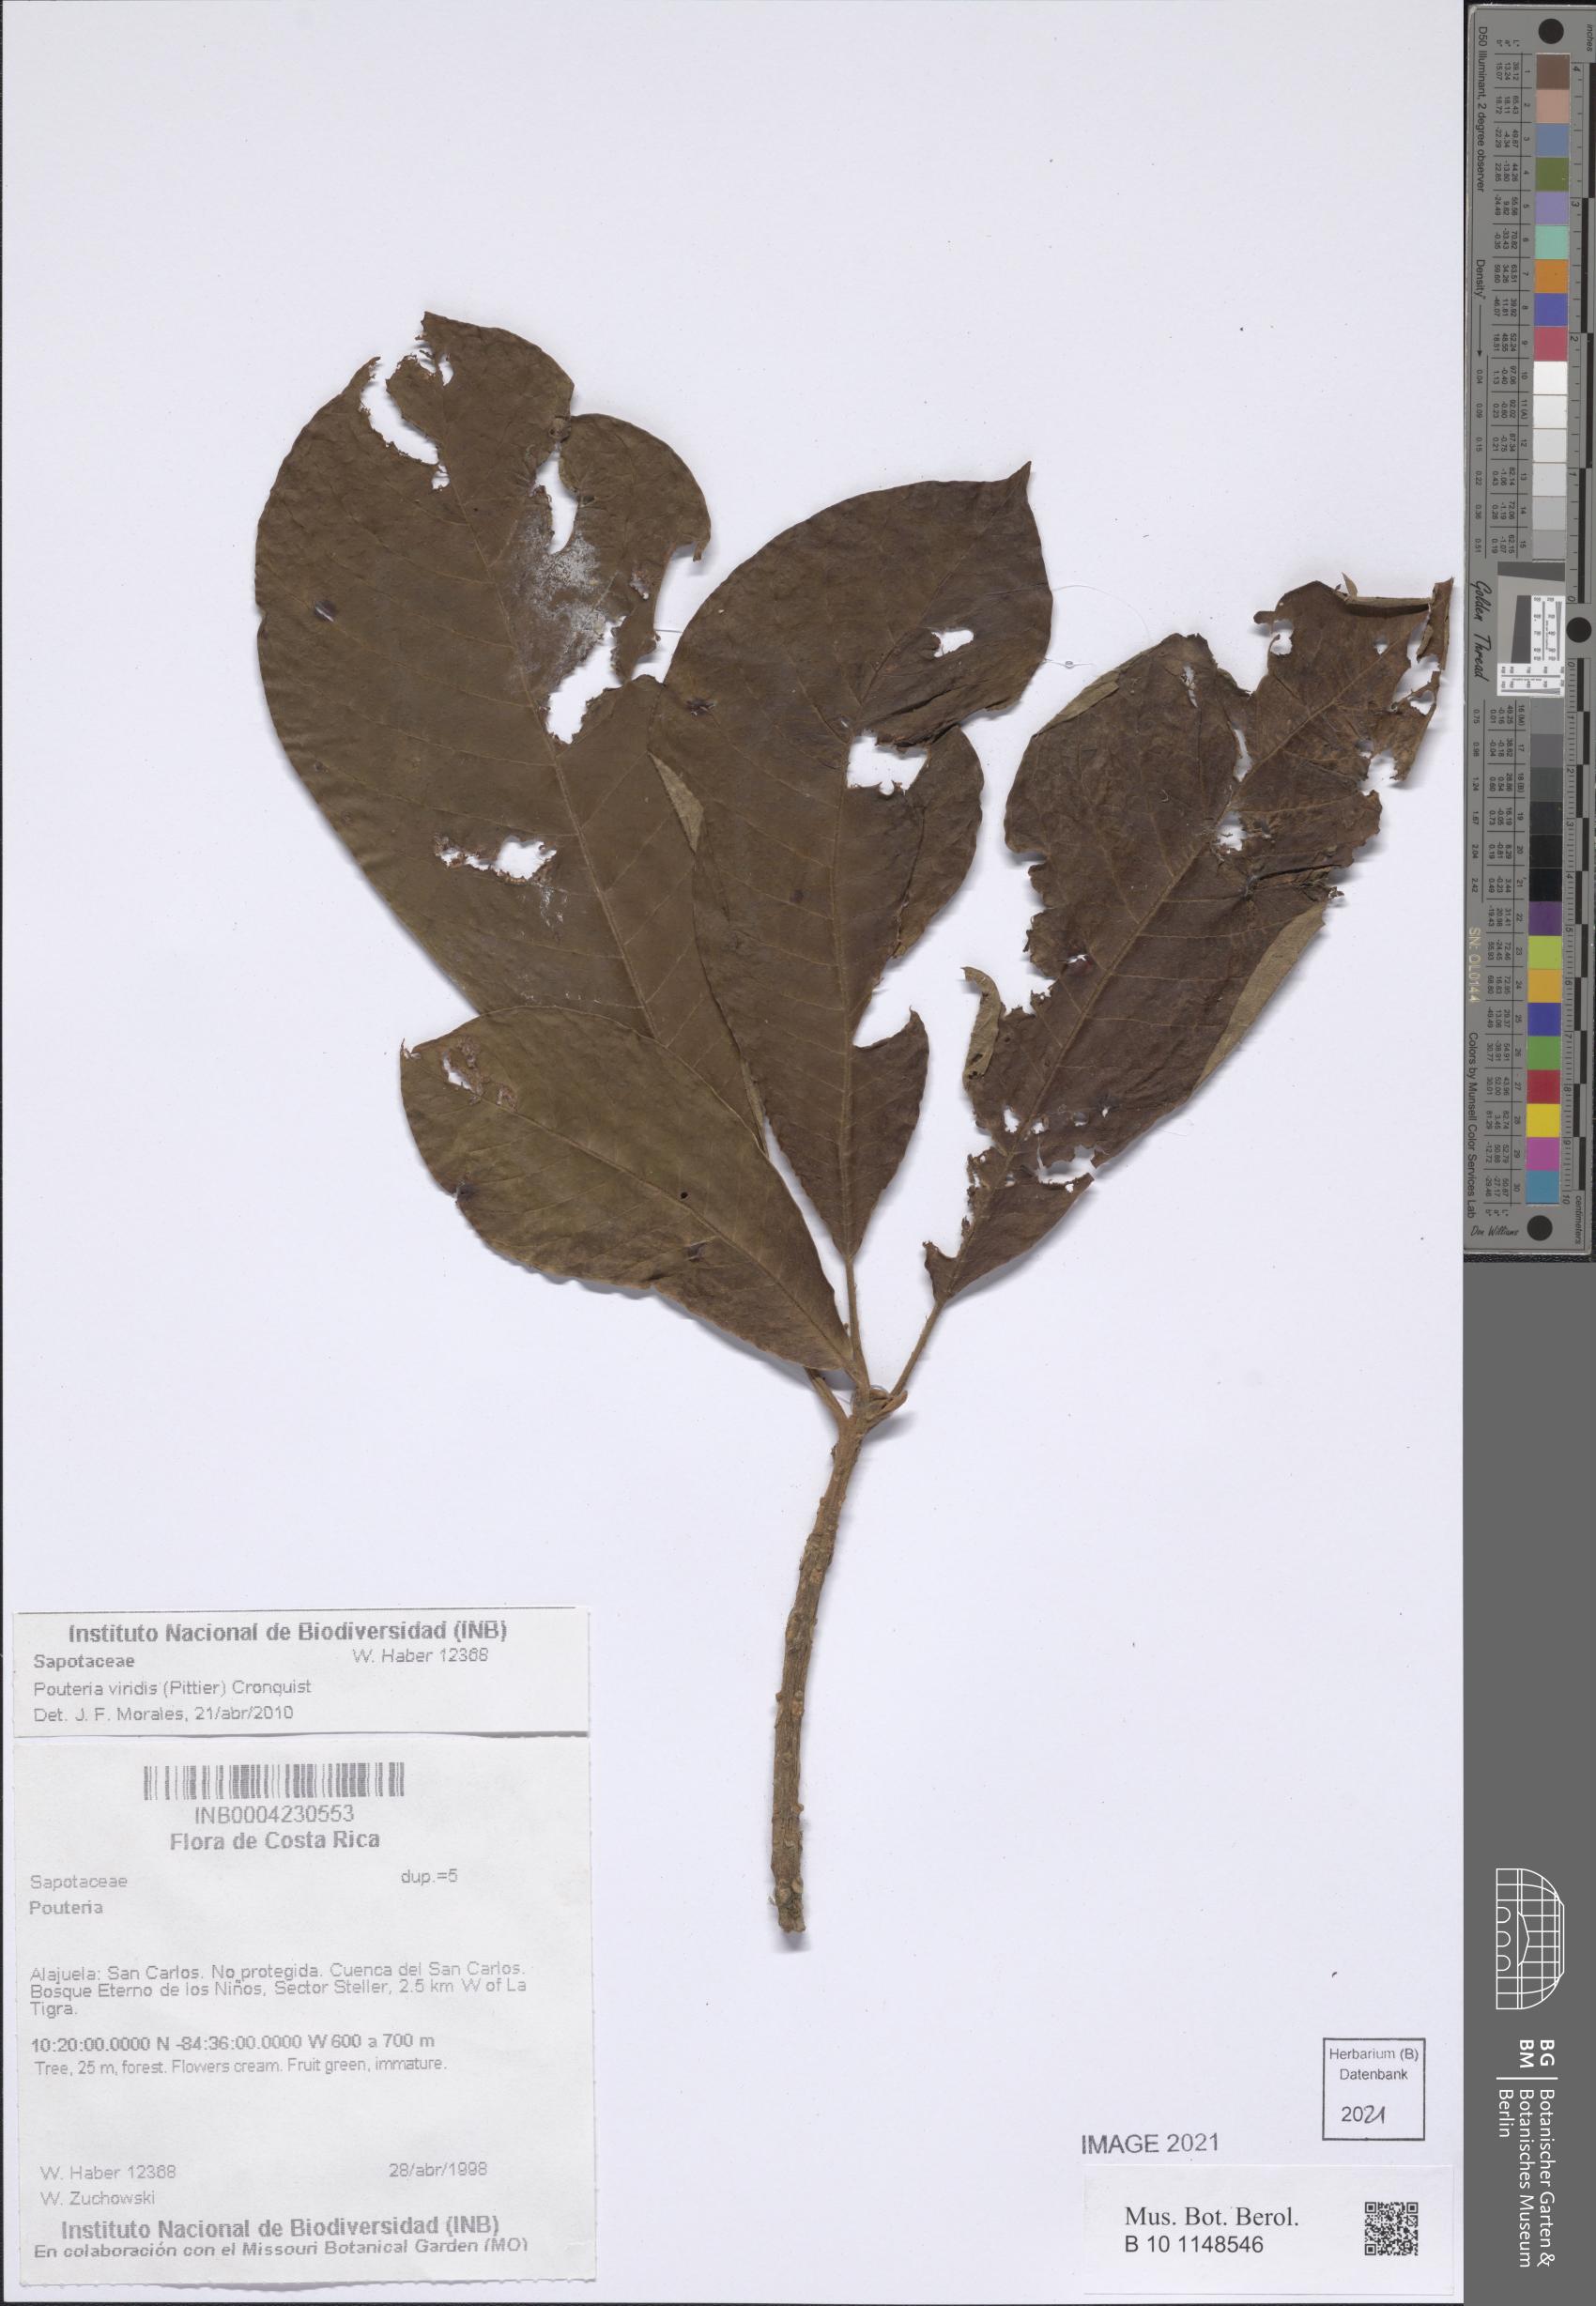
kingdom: Plantae
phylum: Tracheophyta
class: Magnoliopsida
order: Ericales
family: Sapotaceae
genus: Pouteria
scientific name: Pouteria viridis
